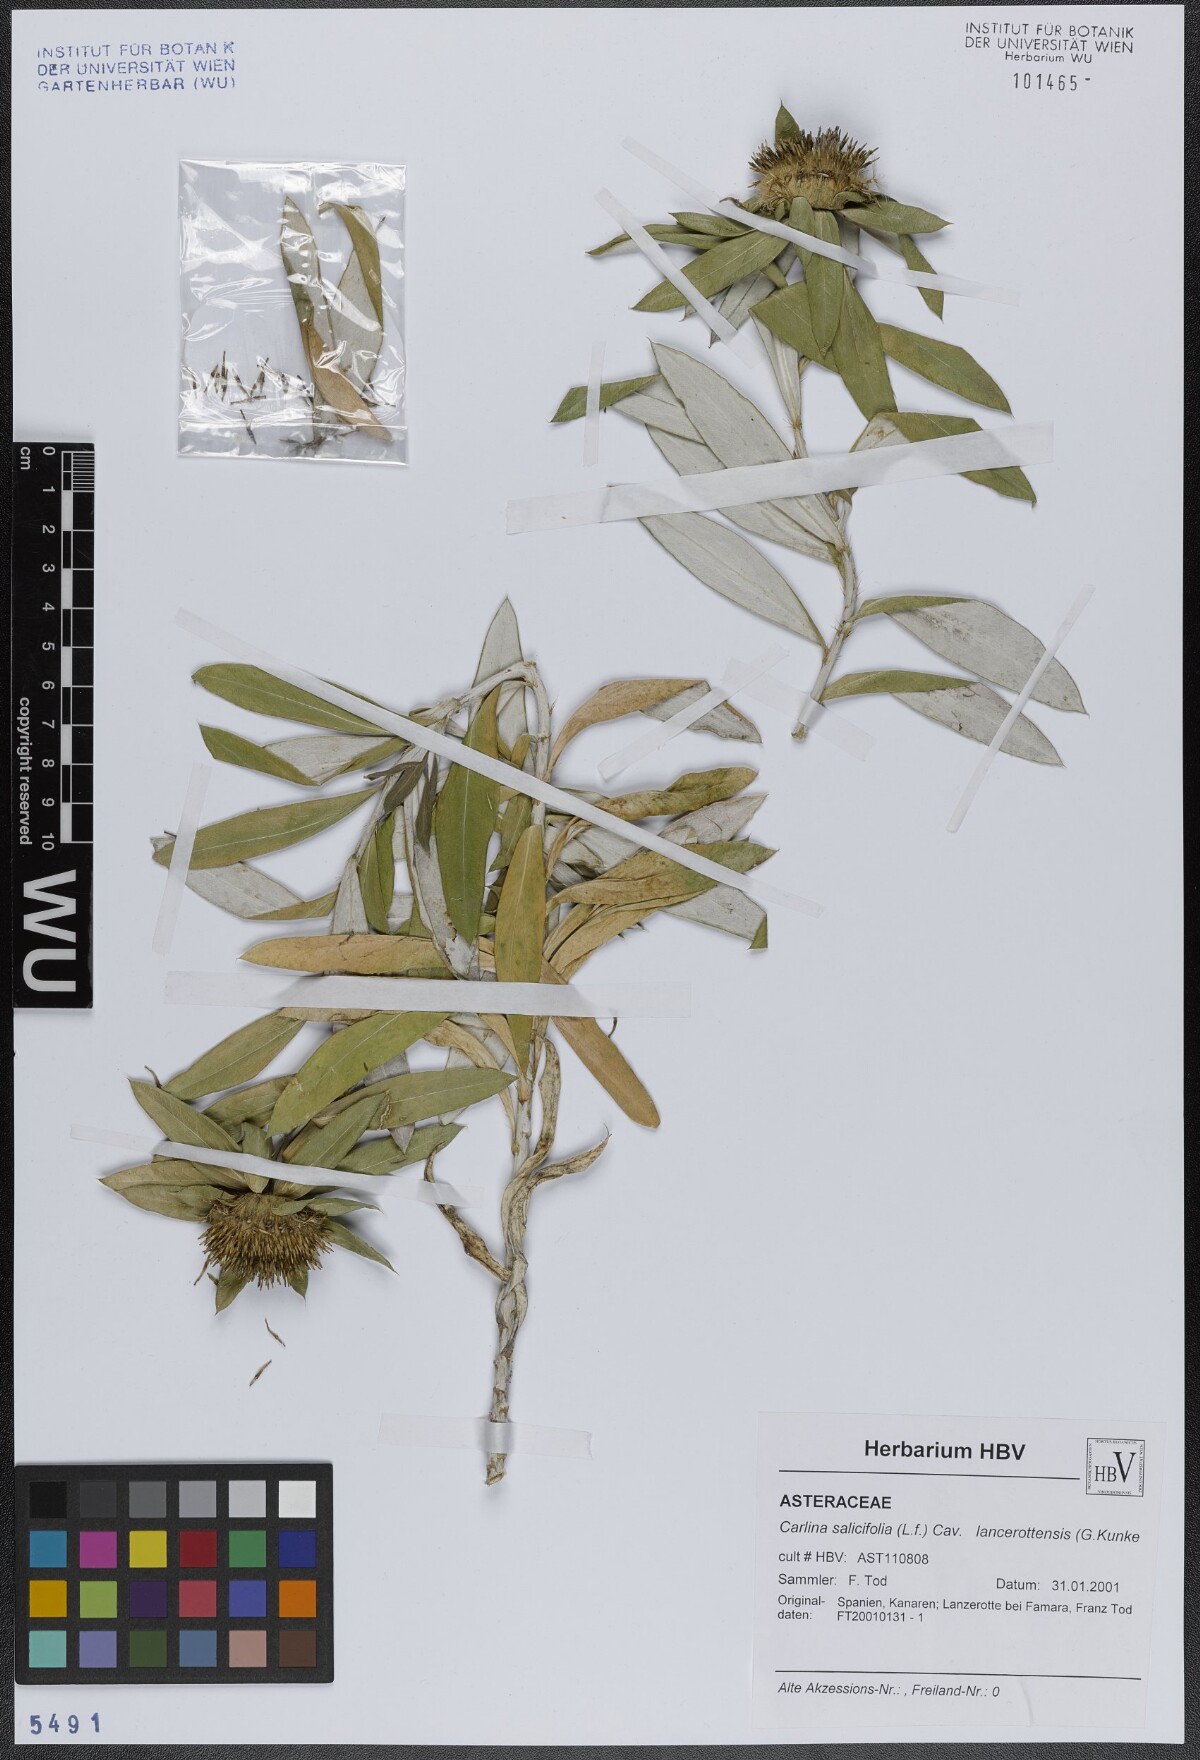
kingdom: Plantae
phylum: Tracheophyta
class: Magnoliopsida
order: Asterales
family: Asteraceae
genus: Carlina
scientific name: Carlina salicifolia
